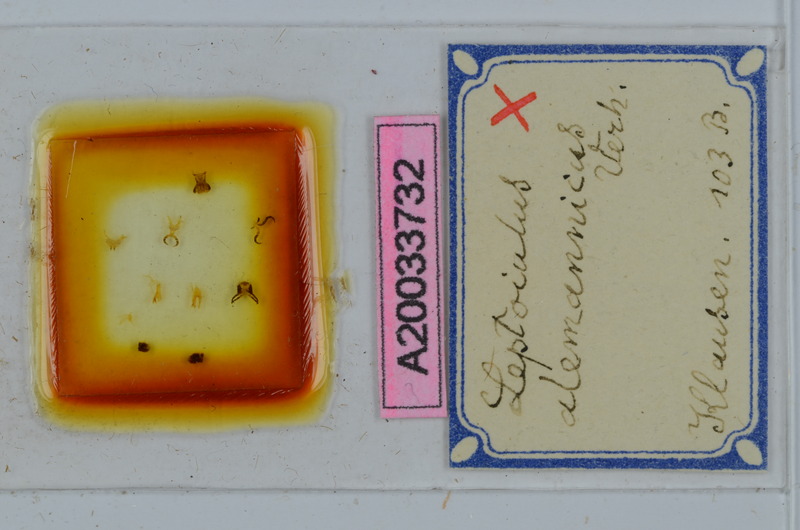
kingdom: Animalia
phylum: Arthropoda
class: Diplopoda
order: Julida
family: Julidae
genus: Leptoiulus
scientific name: Leptoiulus alemannicus
